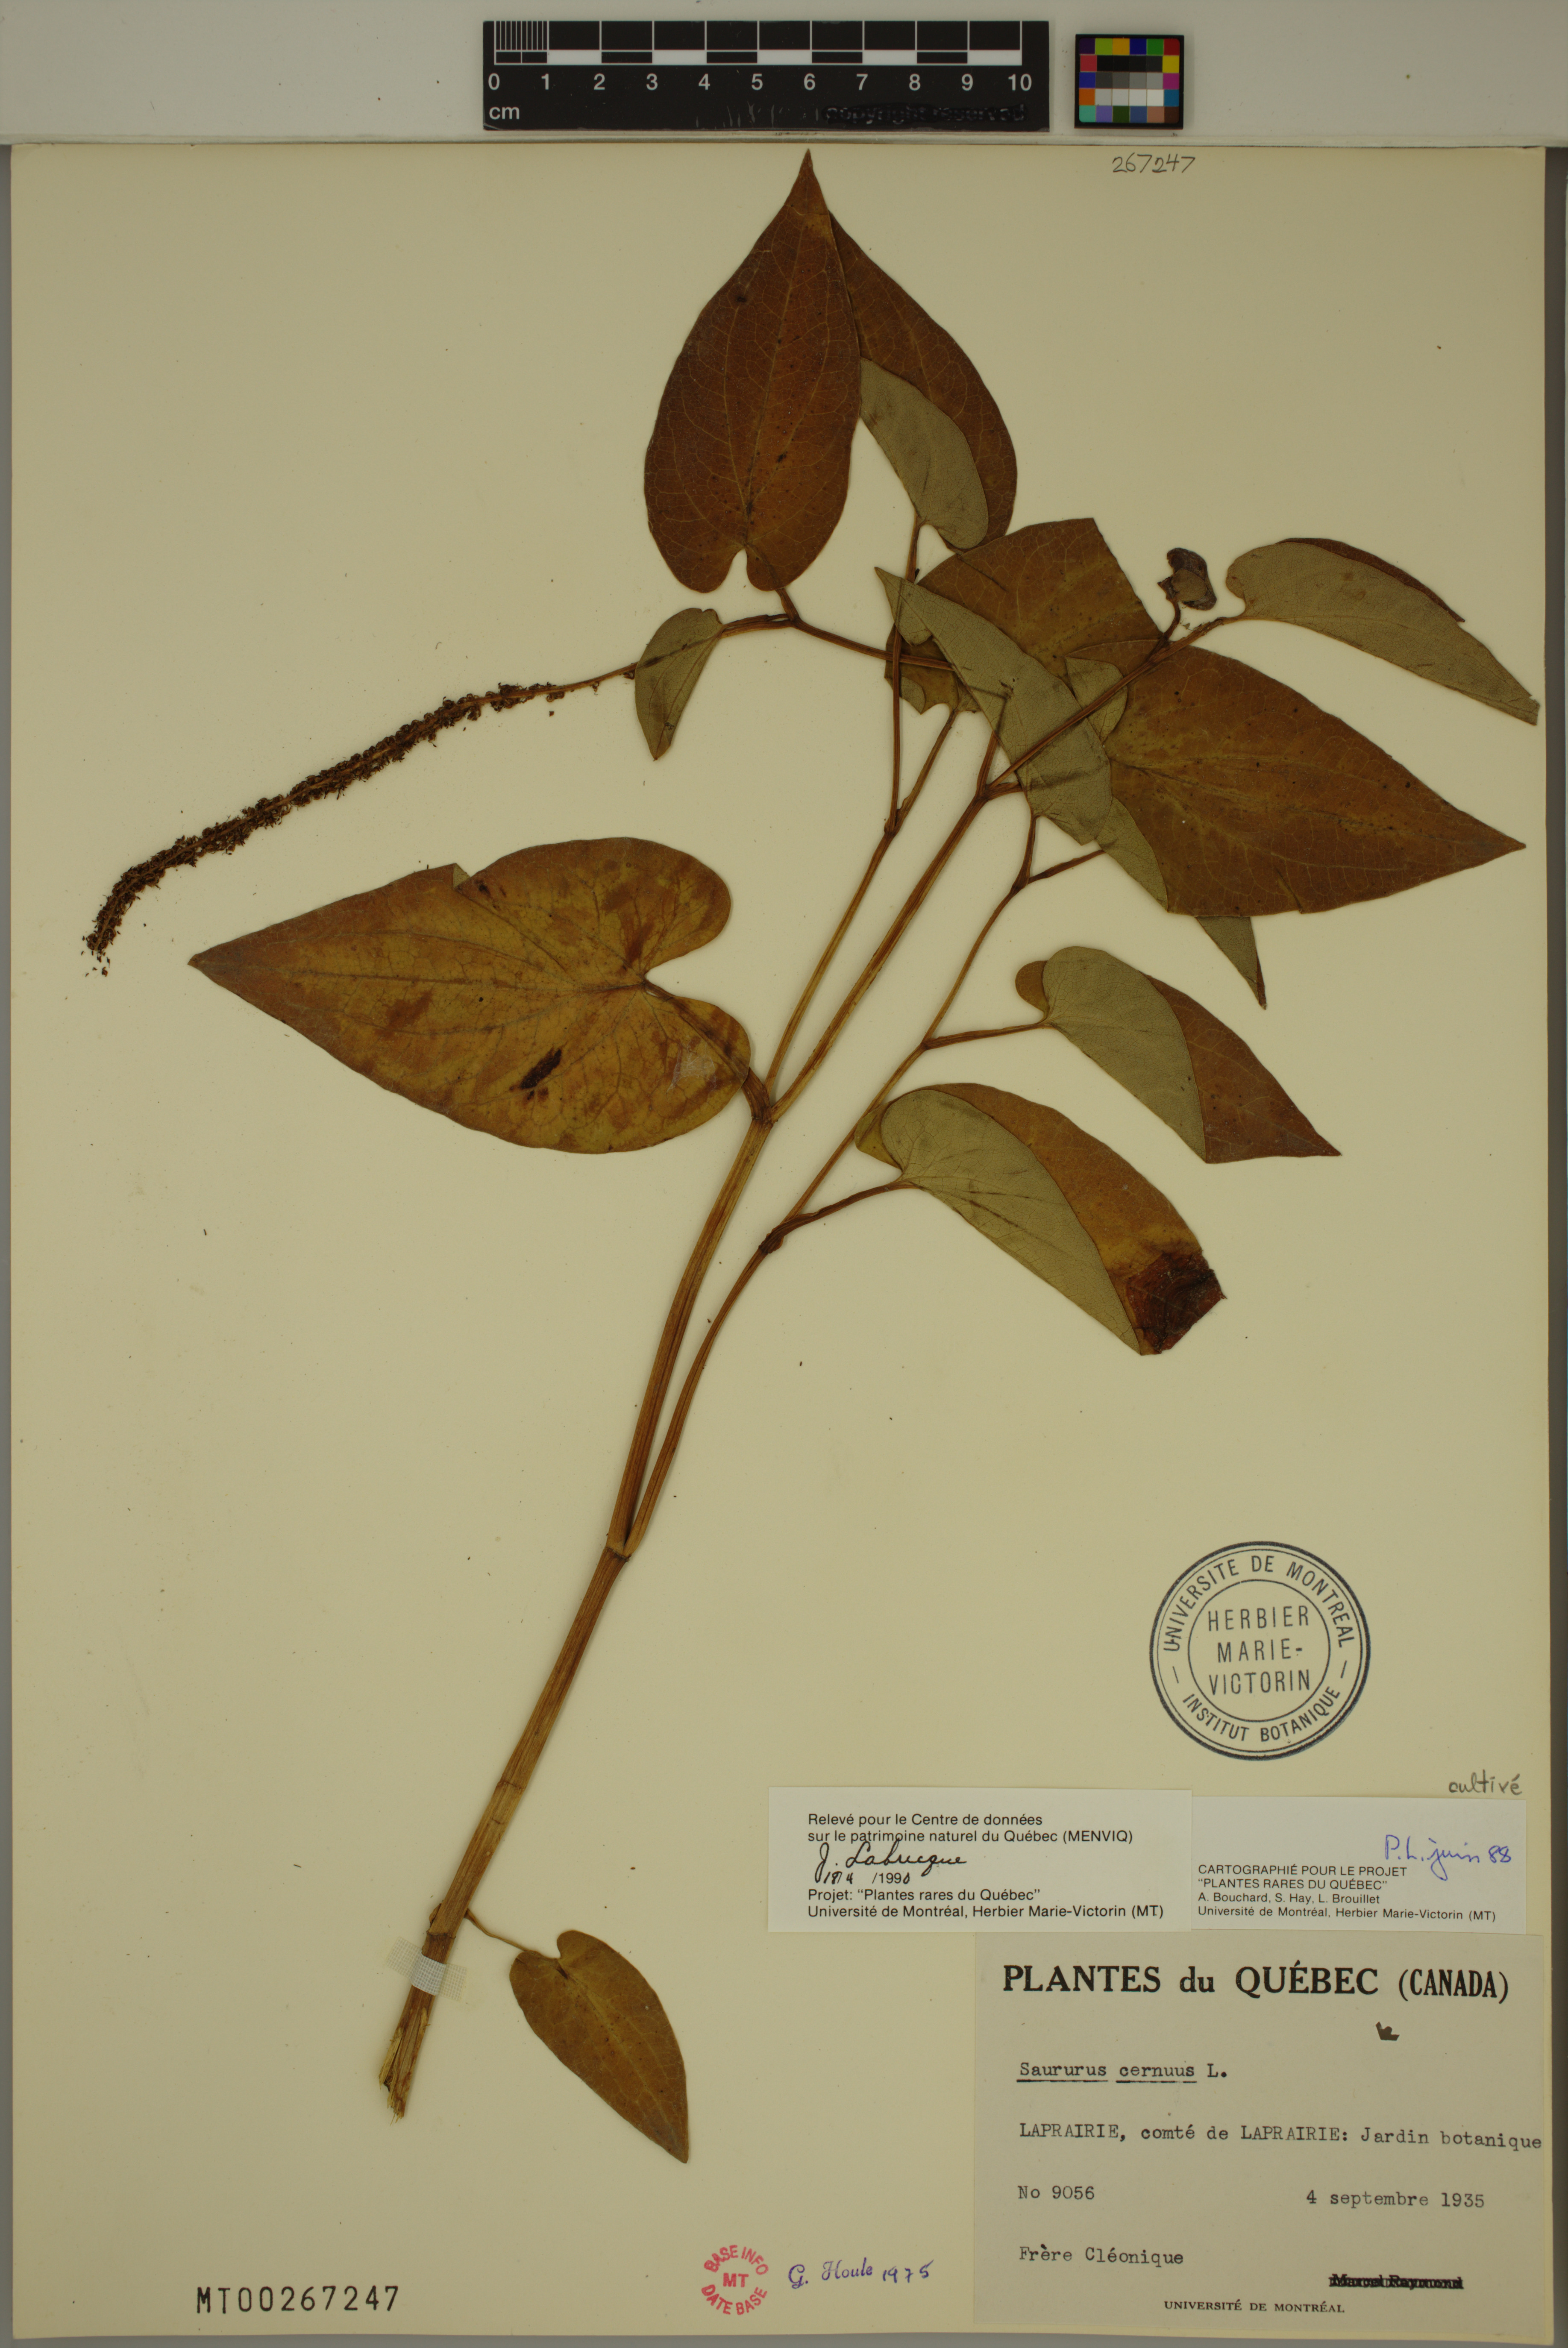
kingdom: Plantae
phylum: Tracheophyta
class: Magnoliopsida
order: Piperales
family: Saururaceae
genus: Saururus
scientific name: Saururus cernuus
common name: Lizard's-tail
